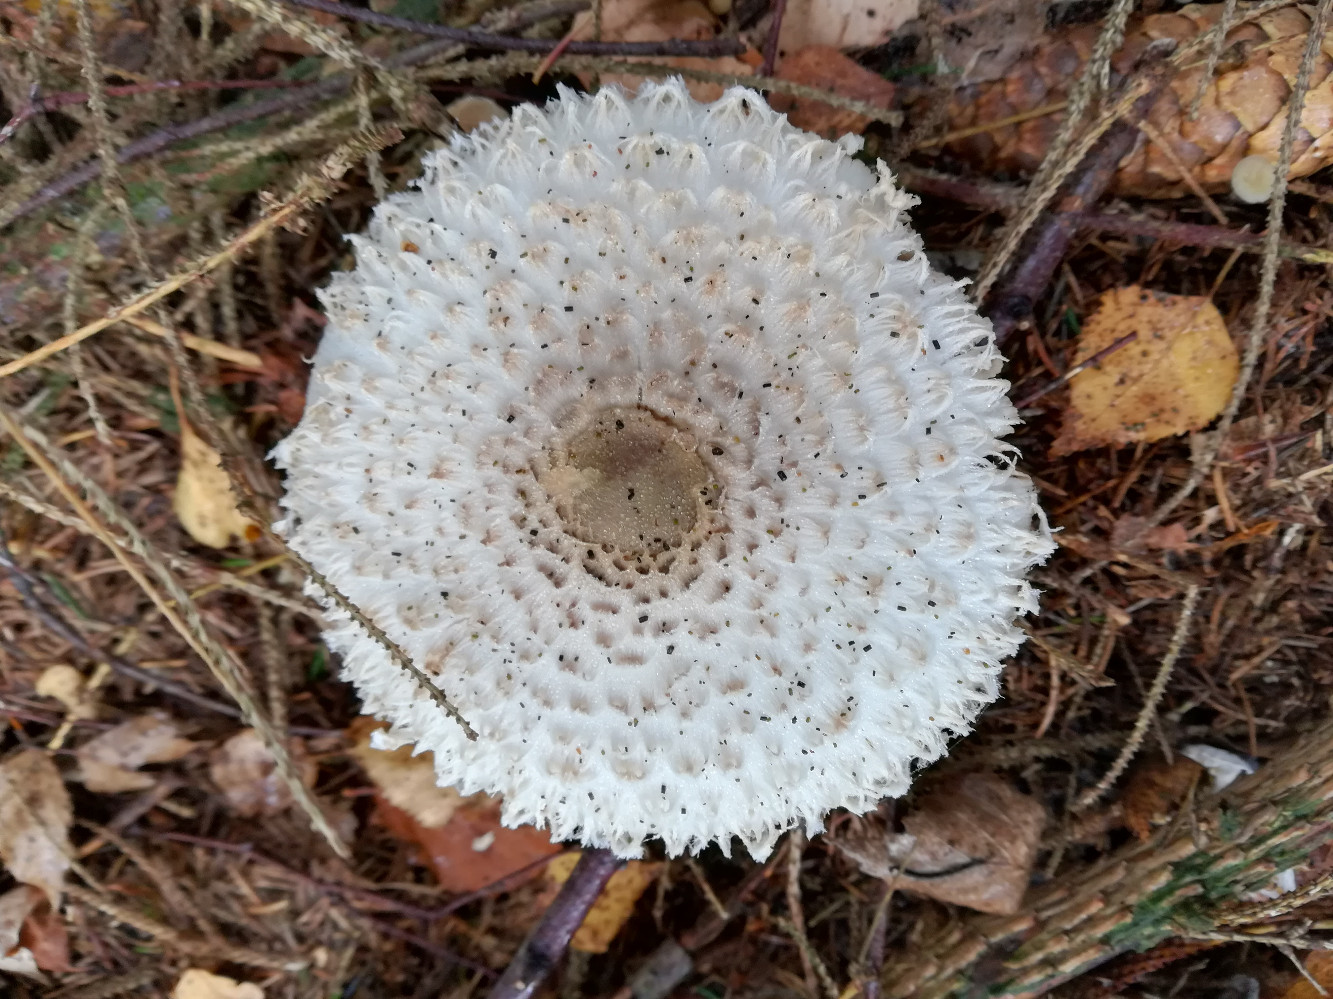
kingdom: Fungi
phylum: Basidiomycota
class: Agaricomycetes
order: Agaricales
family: Agaricaceae
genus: Leucoagaricus
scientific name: Leucoagaricus nympharum
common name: gran-silkehat
